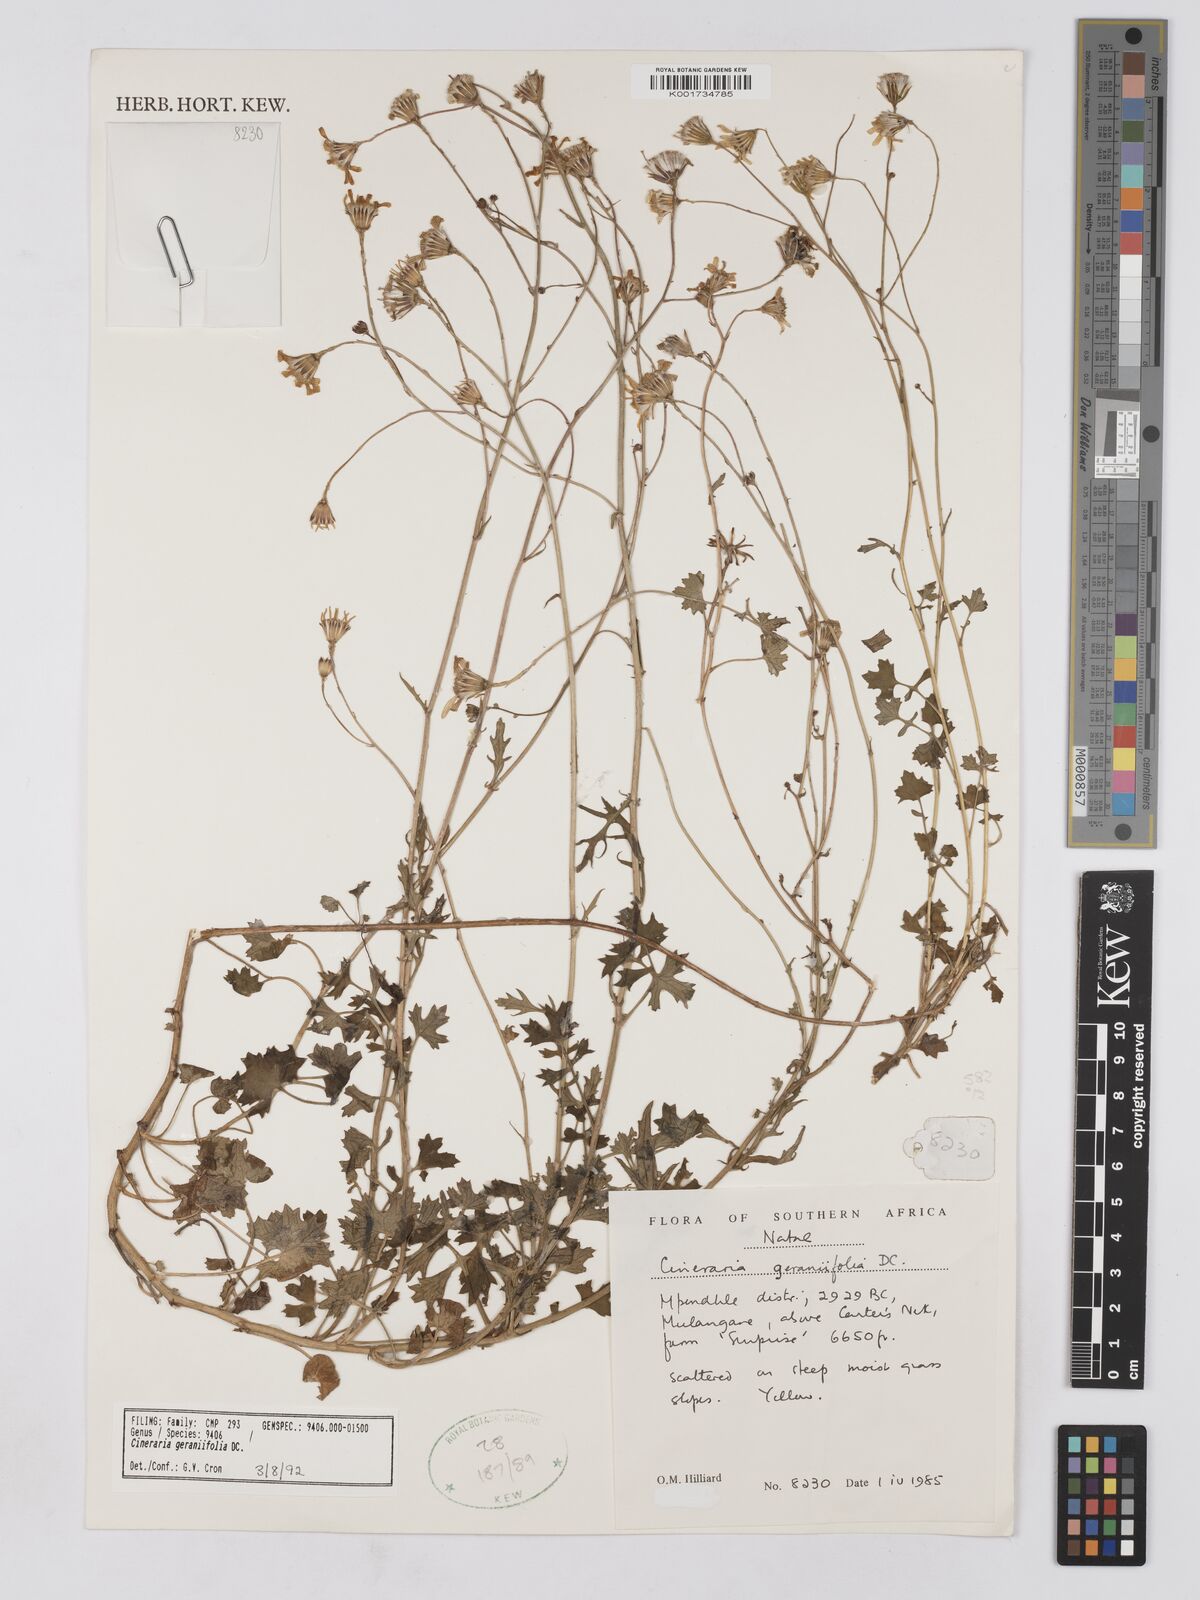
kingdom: Plantae
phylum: Tracheophyta
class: Magnoliopsida
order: Asterales
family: Asteraceae
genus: Cineraria
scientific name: Cineraria geraniifolia
